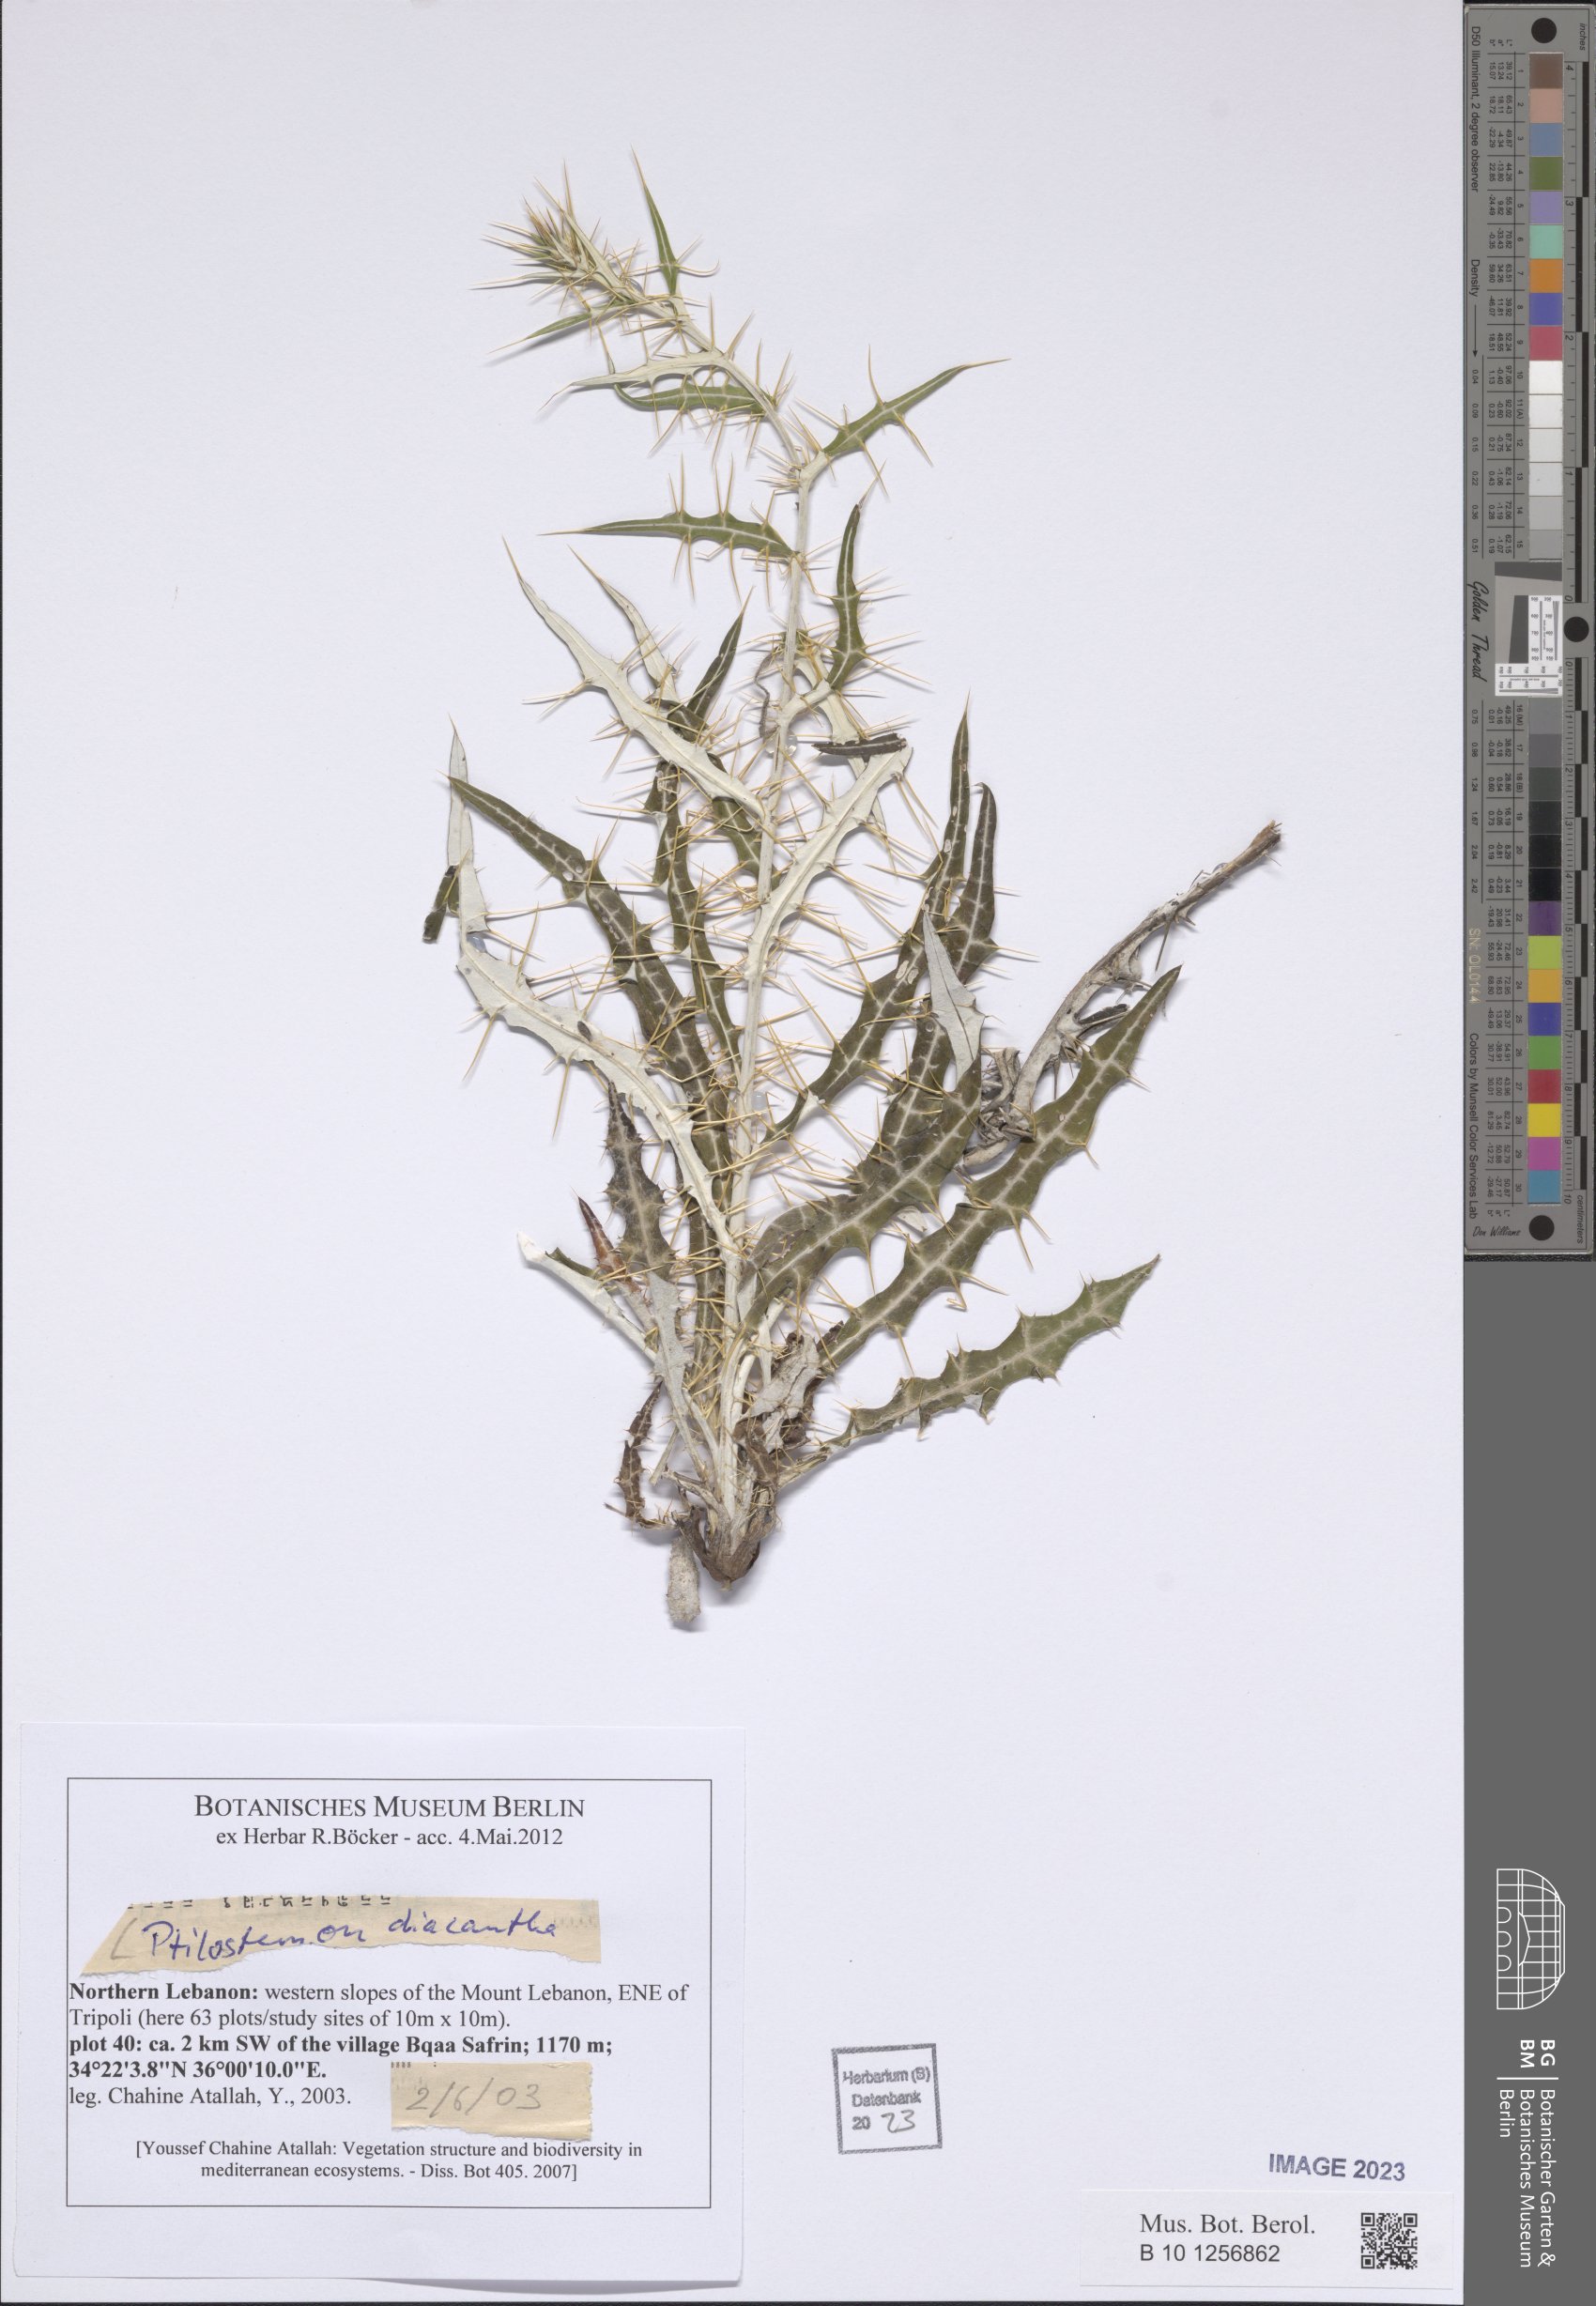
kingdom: Plantae
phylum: Tracheophyta
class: Magnoliopsida
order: Asterales
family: Asteraceae
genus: Ptilostemon
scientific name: Ptilostemon diacanthus
